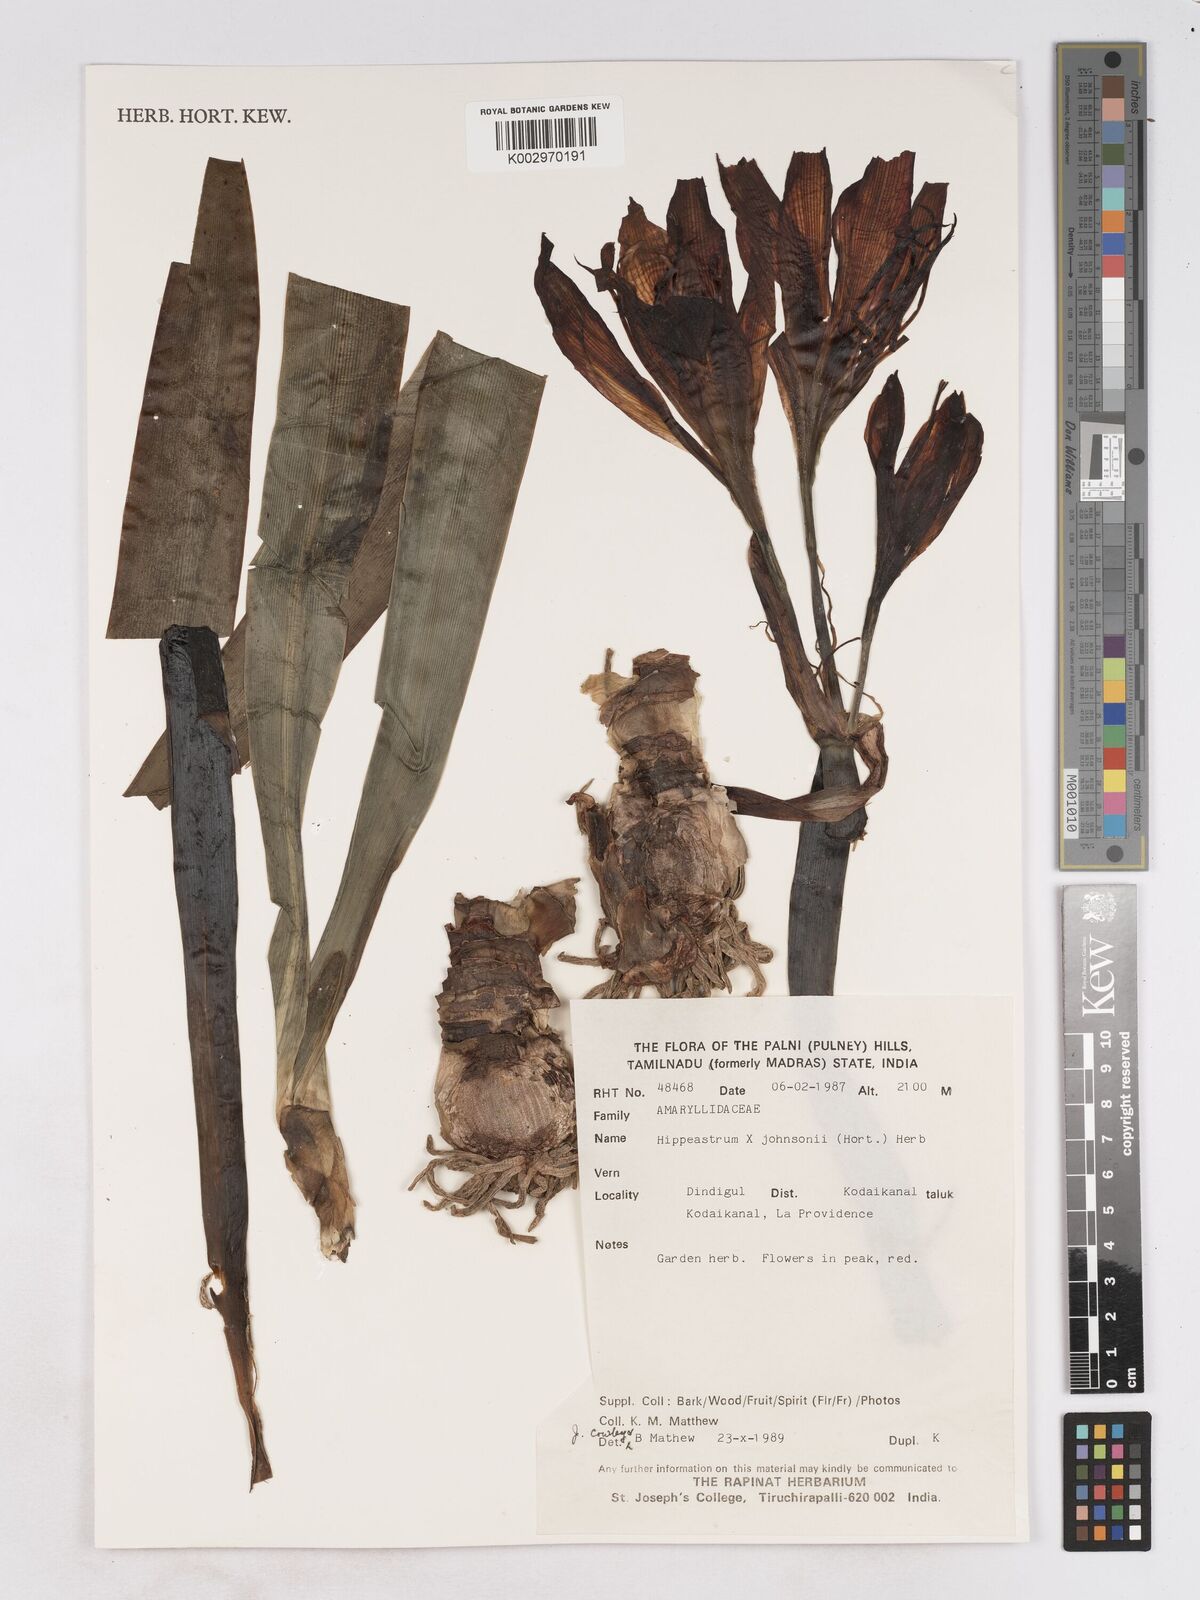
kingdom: Plantae
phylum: Tracheophyta
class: Liliopsida
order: Asparagales
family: Amaryllidaceae
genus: Hippeastrum
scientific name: Hippeastrum johnsonii
